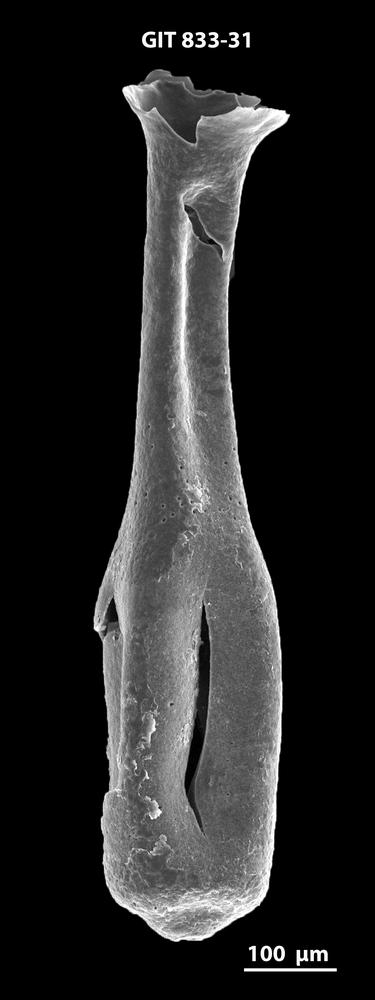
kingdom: Animalia
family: Lagenochitinidae
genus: Lagenochitina
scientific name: Lagenochitina megaesthonica
